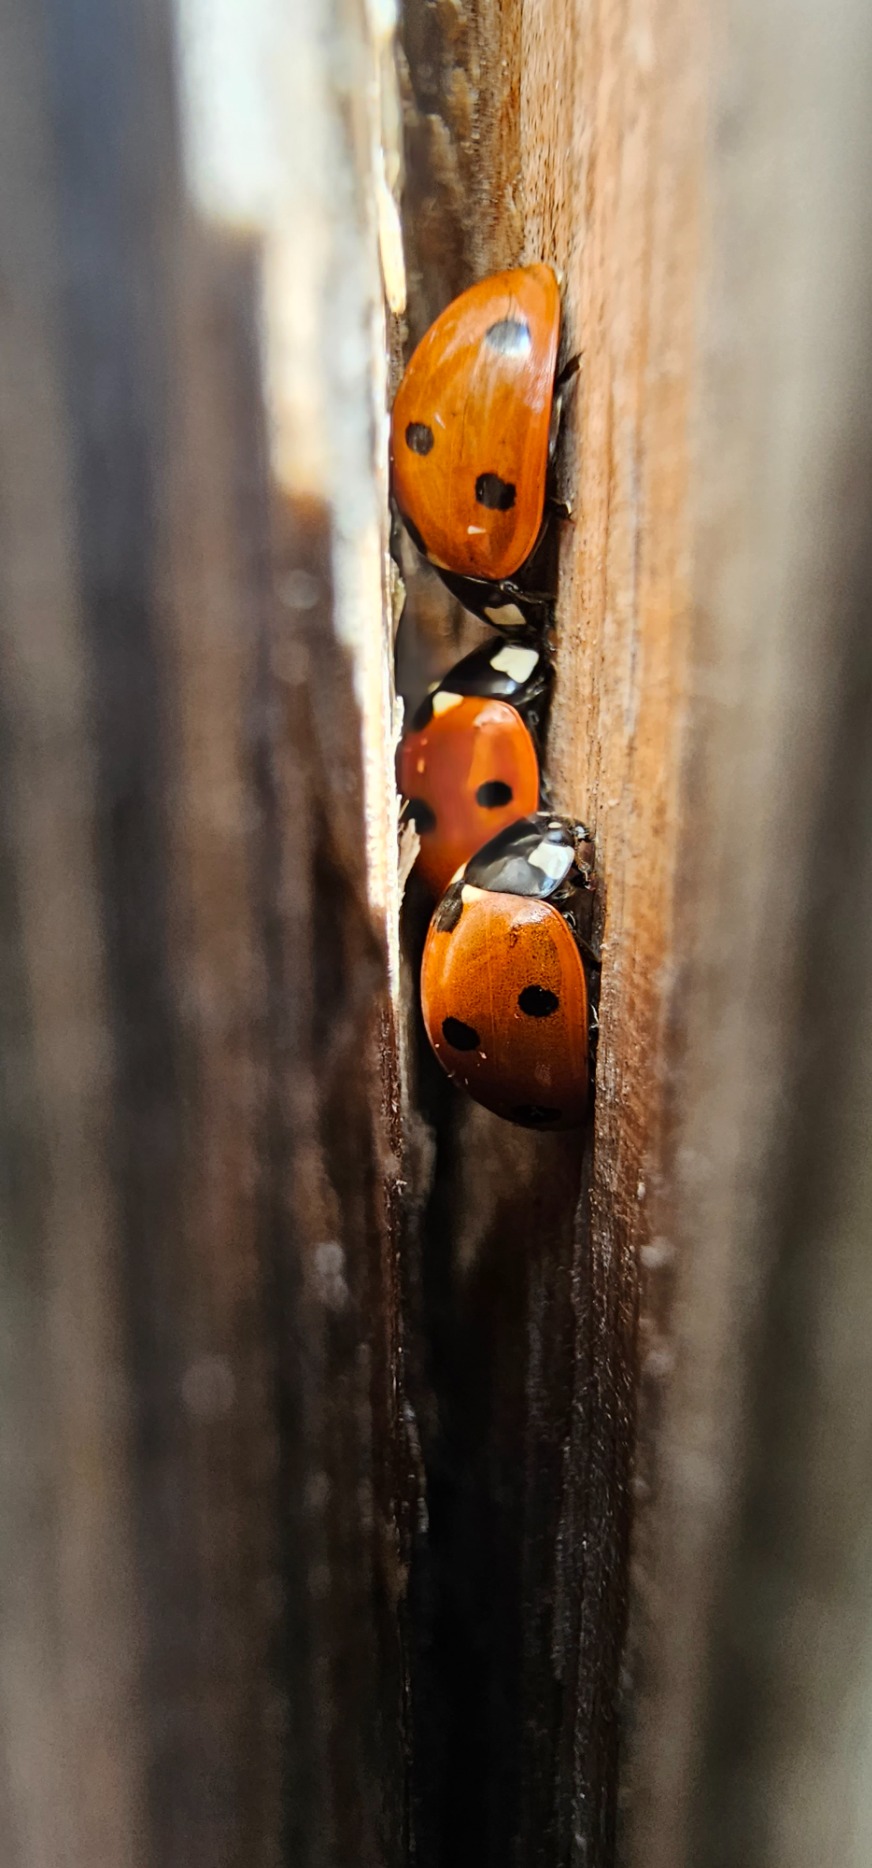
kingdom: Animalia
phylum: Arthropoda
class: Insecta
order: Coleoptera
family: Coccinellidae
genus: Coccinella
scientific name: Coccinella septempunctata
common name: Syvplettet mariehøne
